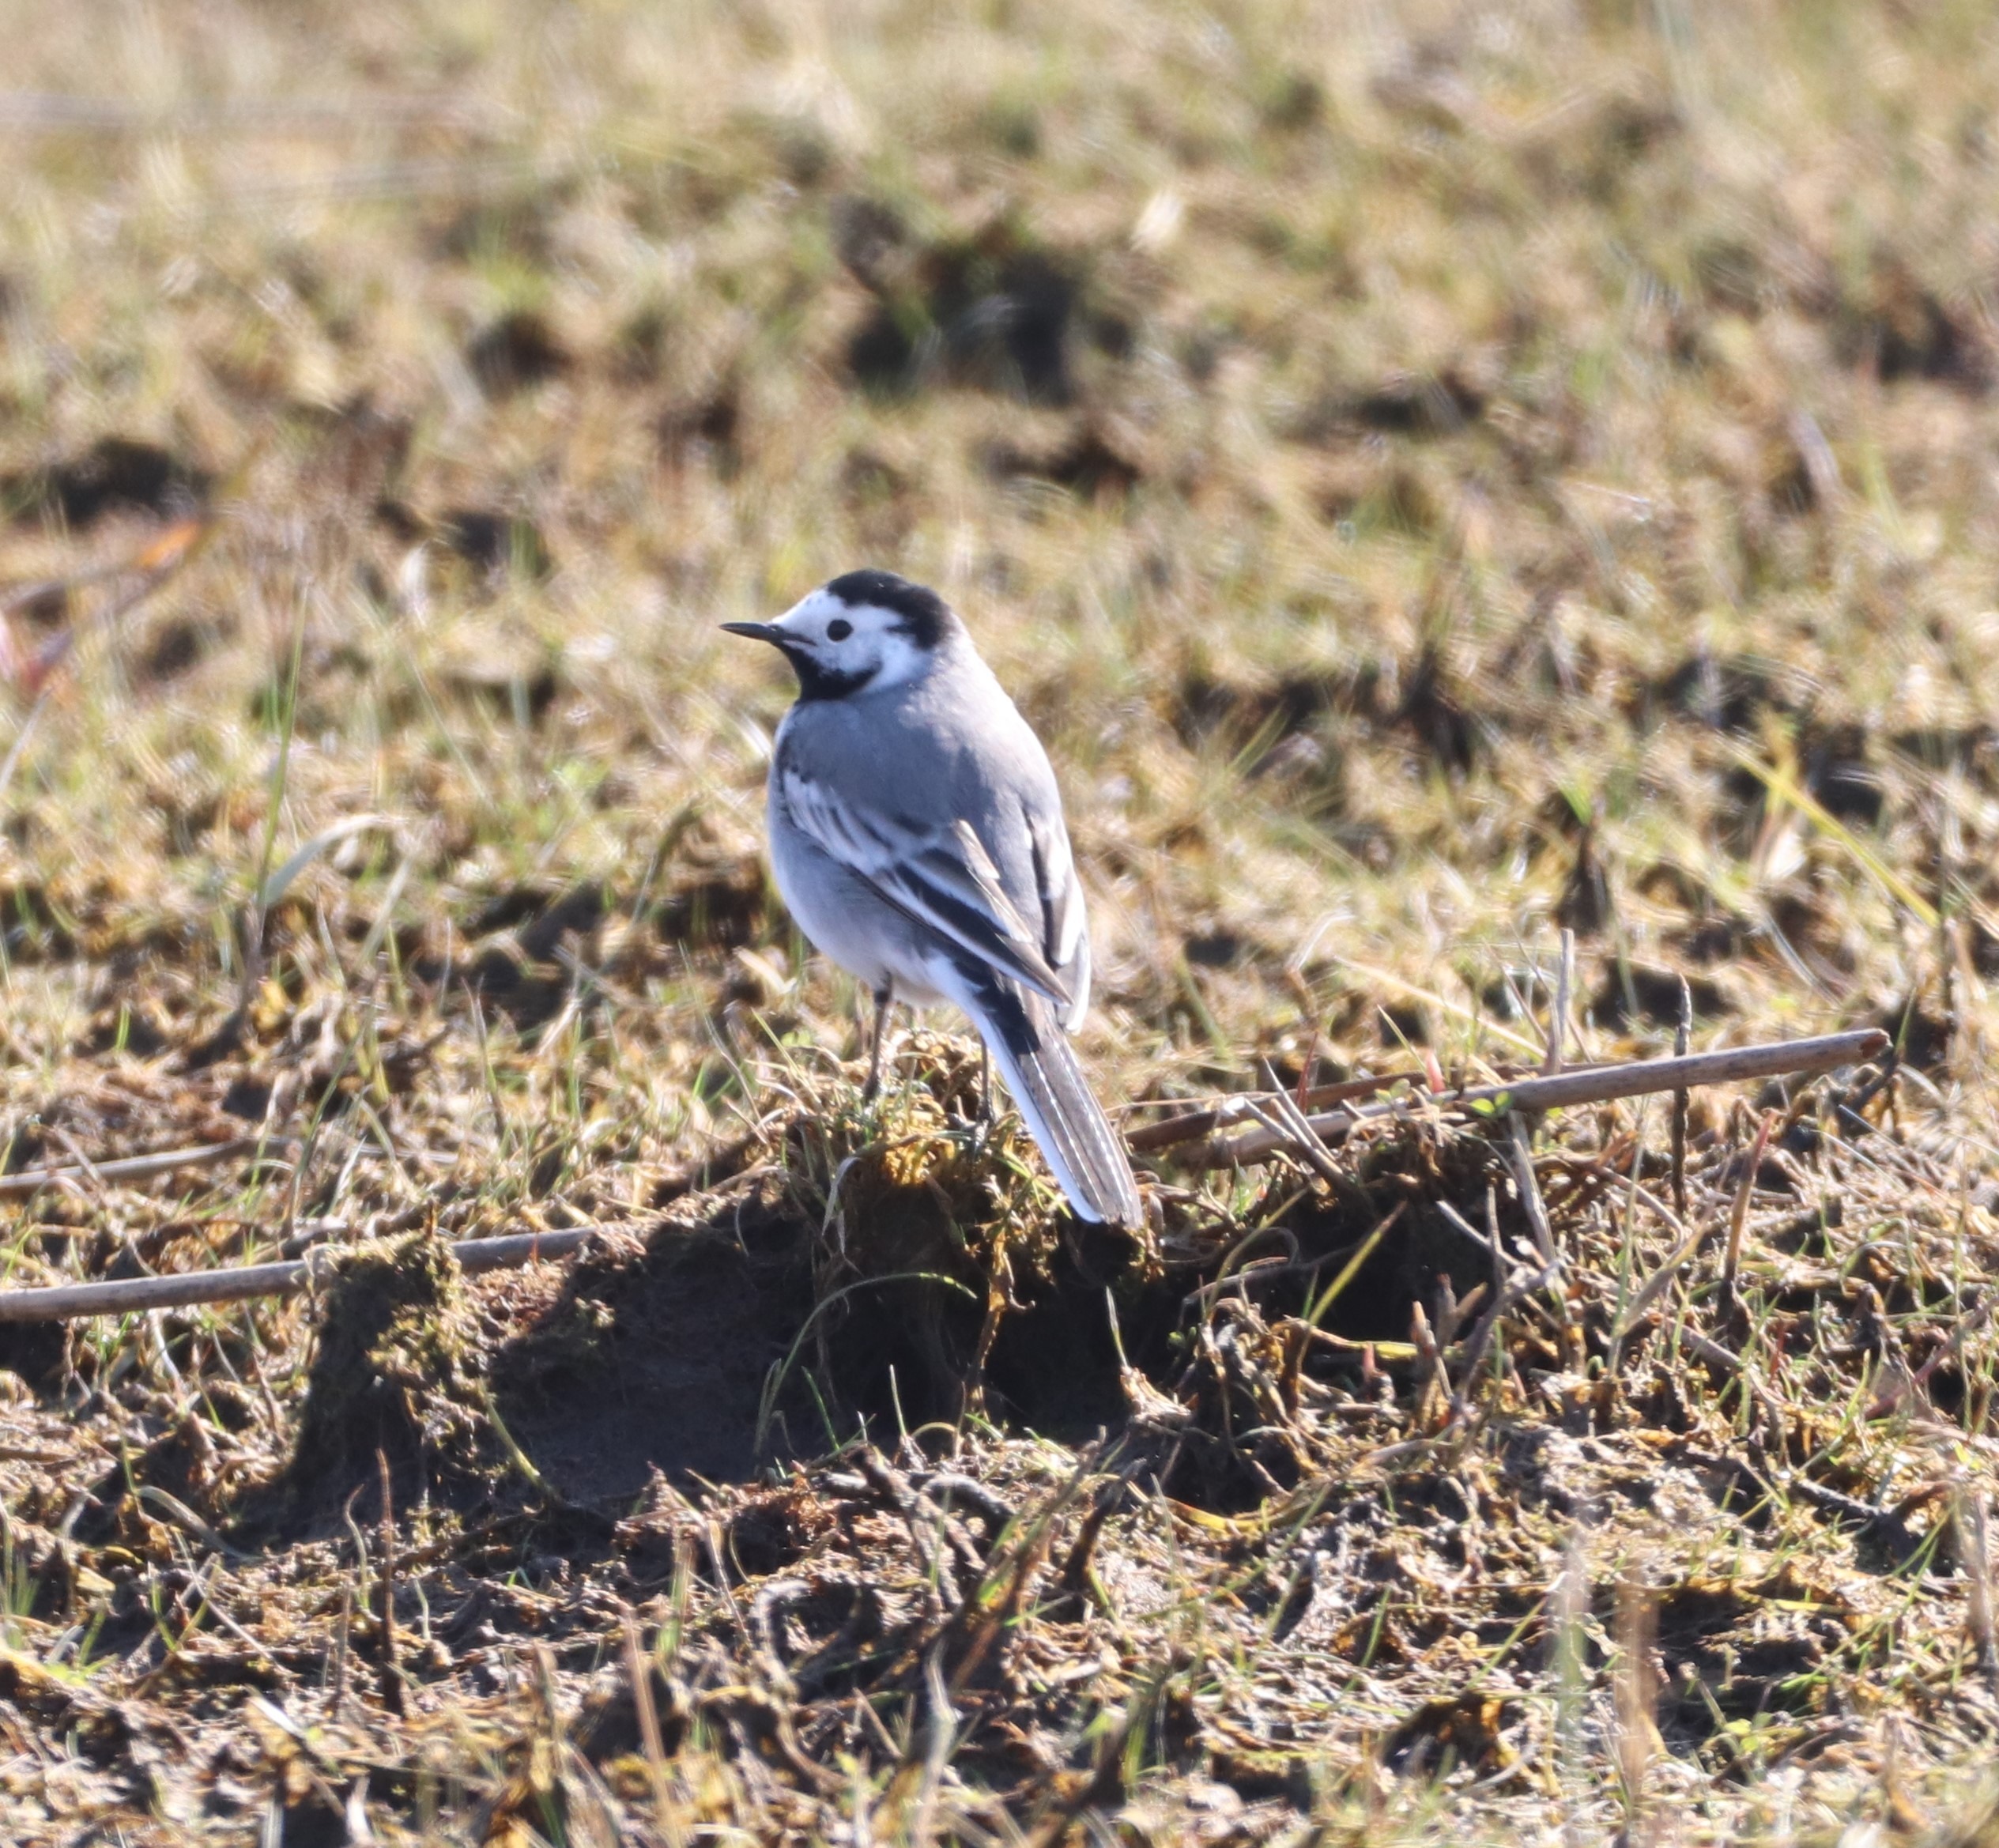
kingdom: Animalia
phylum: Chordata
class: Aves
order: Passeriformes
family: Motacillidae
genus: Motacilla
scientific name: Motacilla alba
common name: Hvid vipstjert
